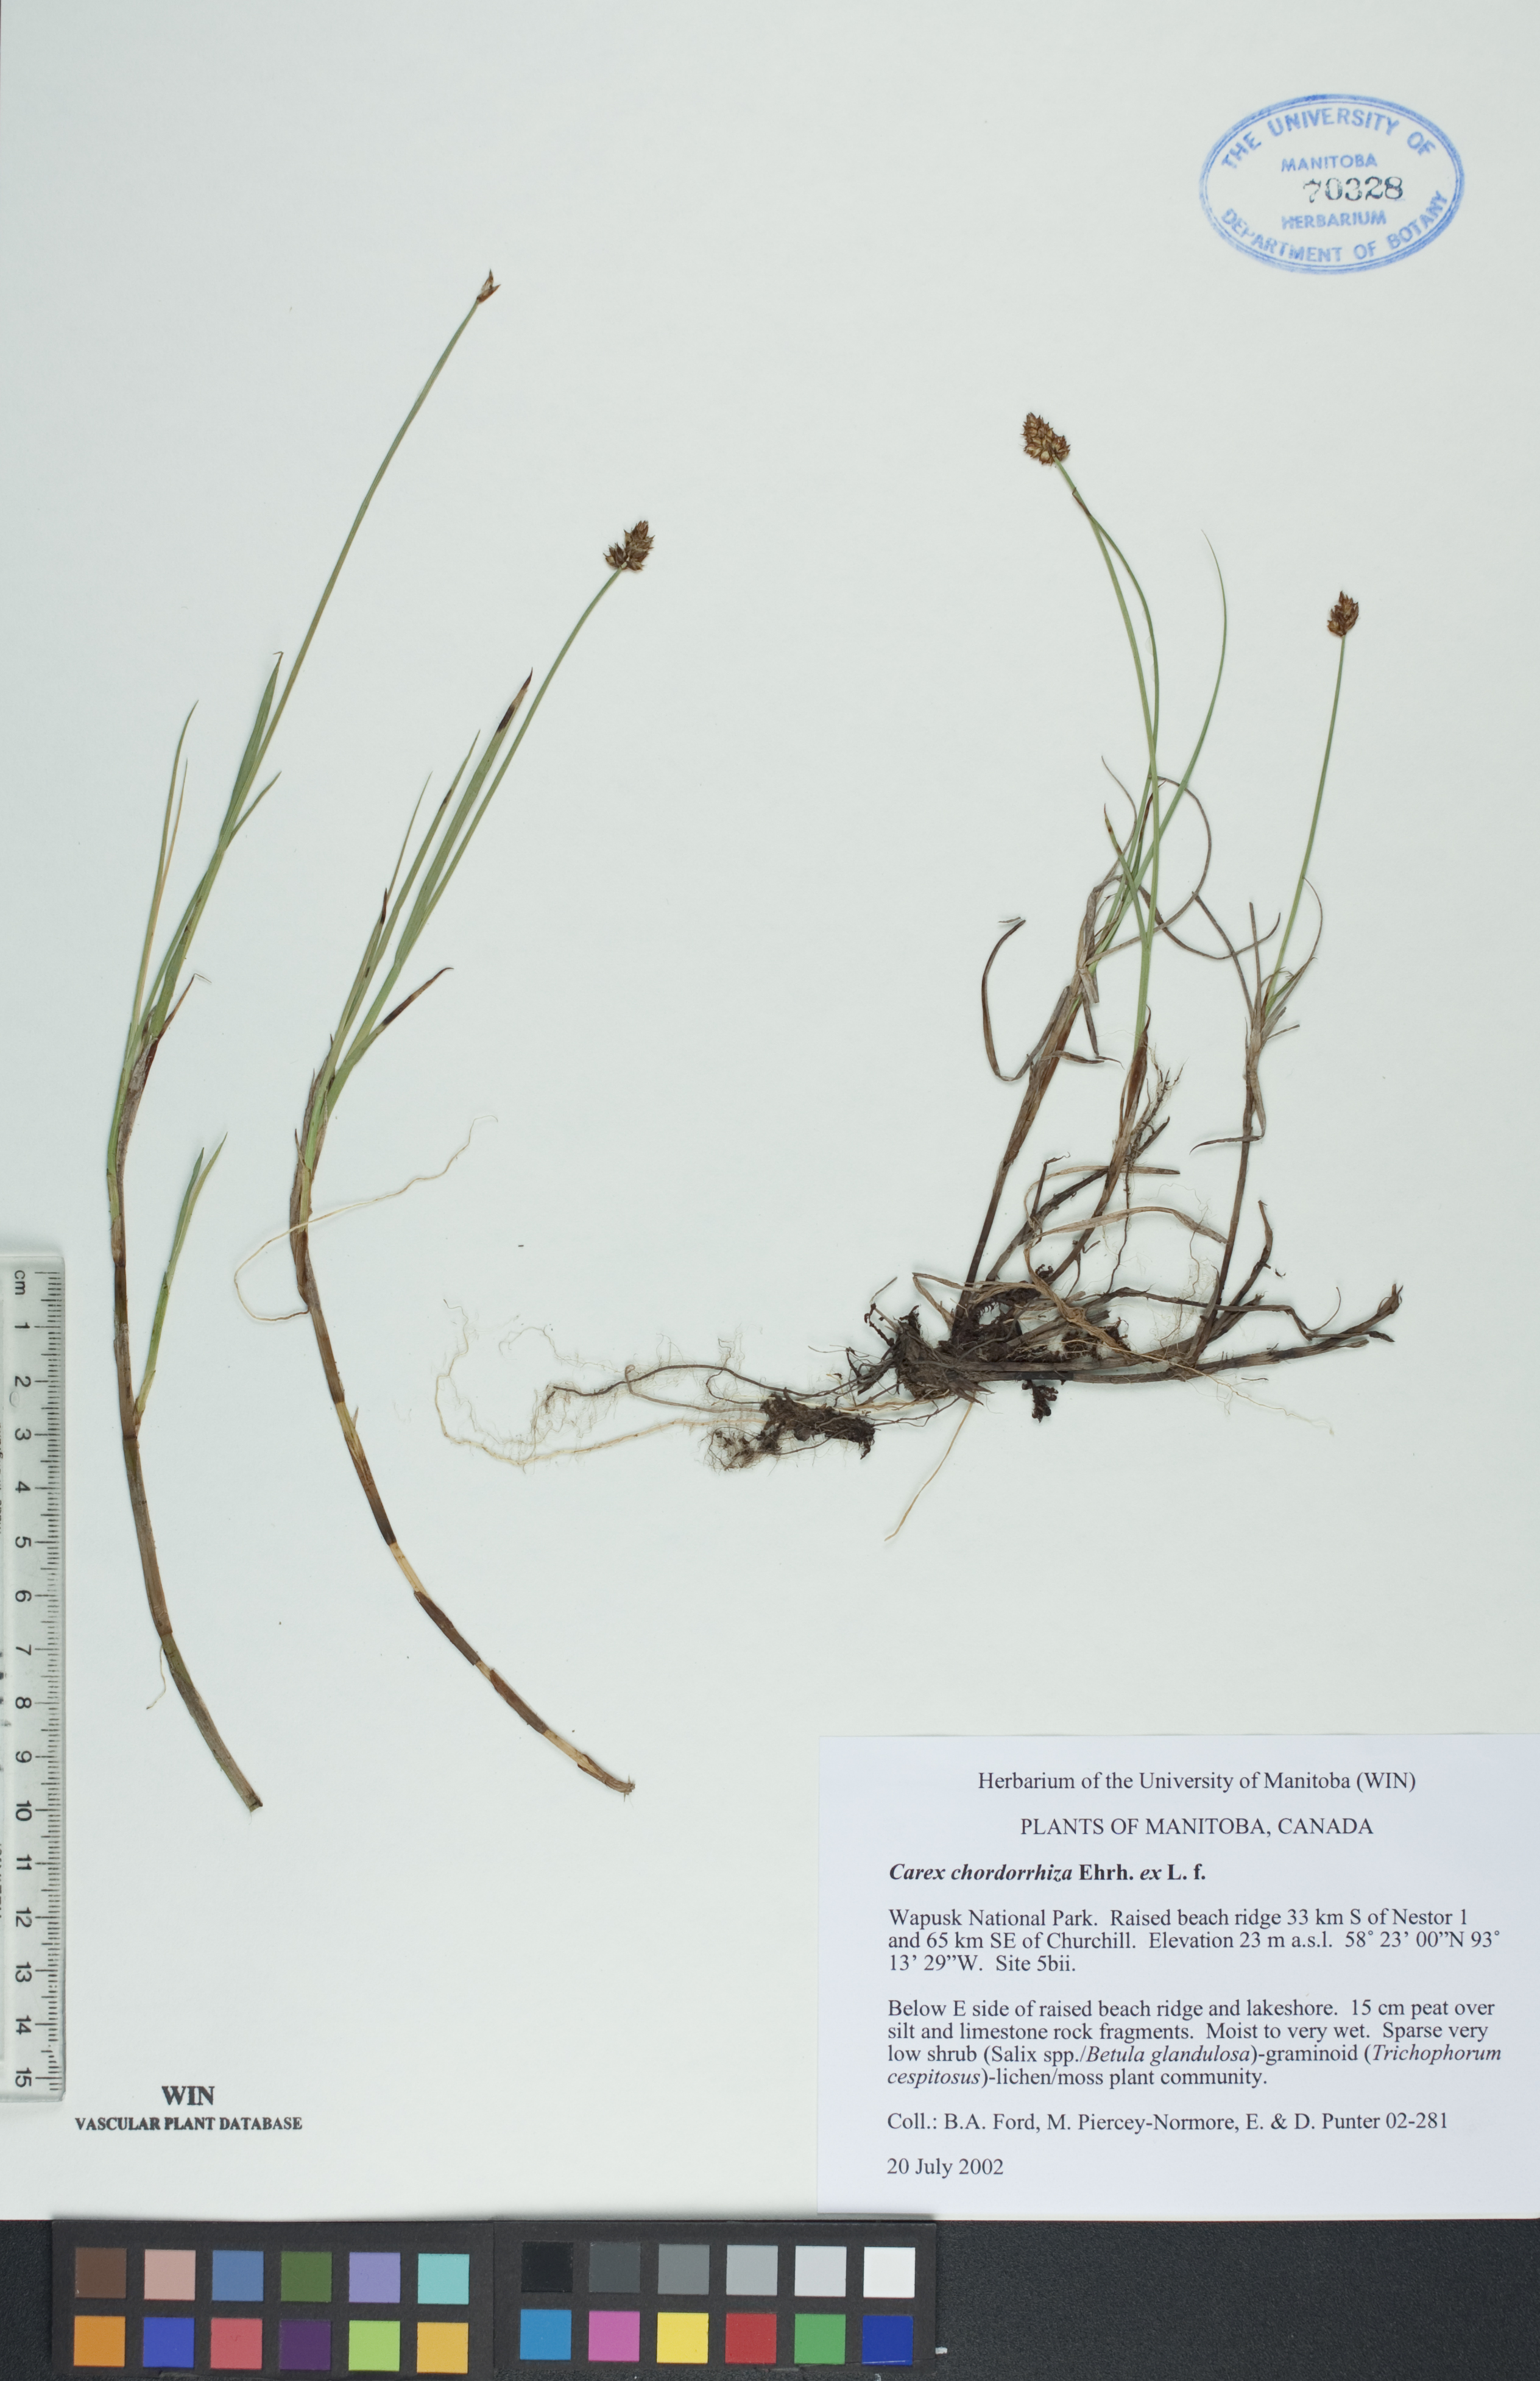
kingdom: Plantae
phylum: Tracheophyta
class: Liliopsida
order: Poales
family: Cyperaceae
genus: Carex
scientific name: Carex chordorrhiza
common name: String sedge
